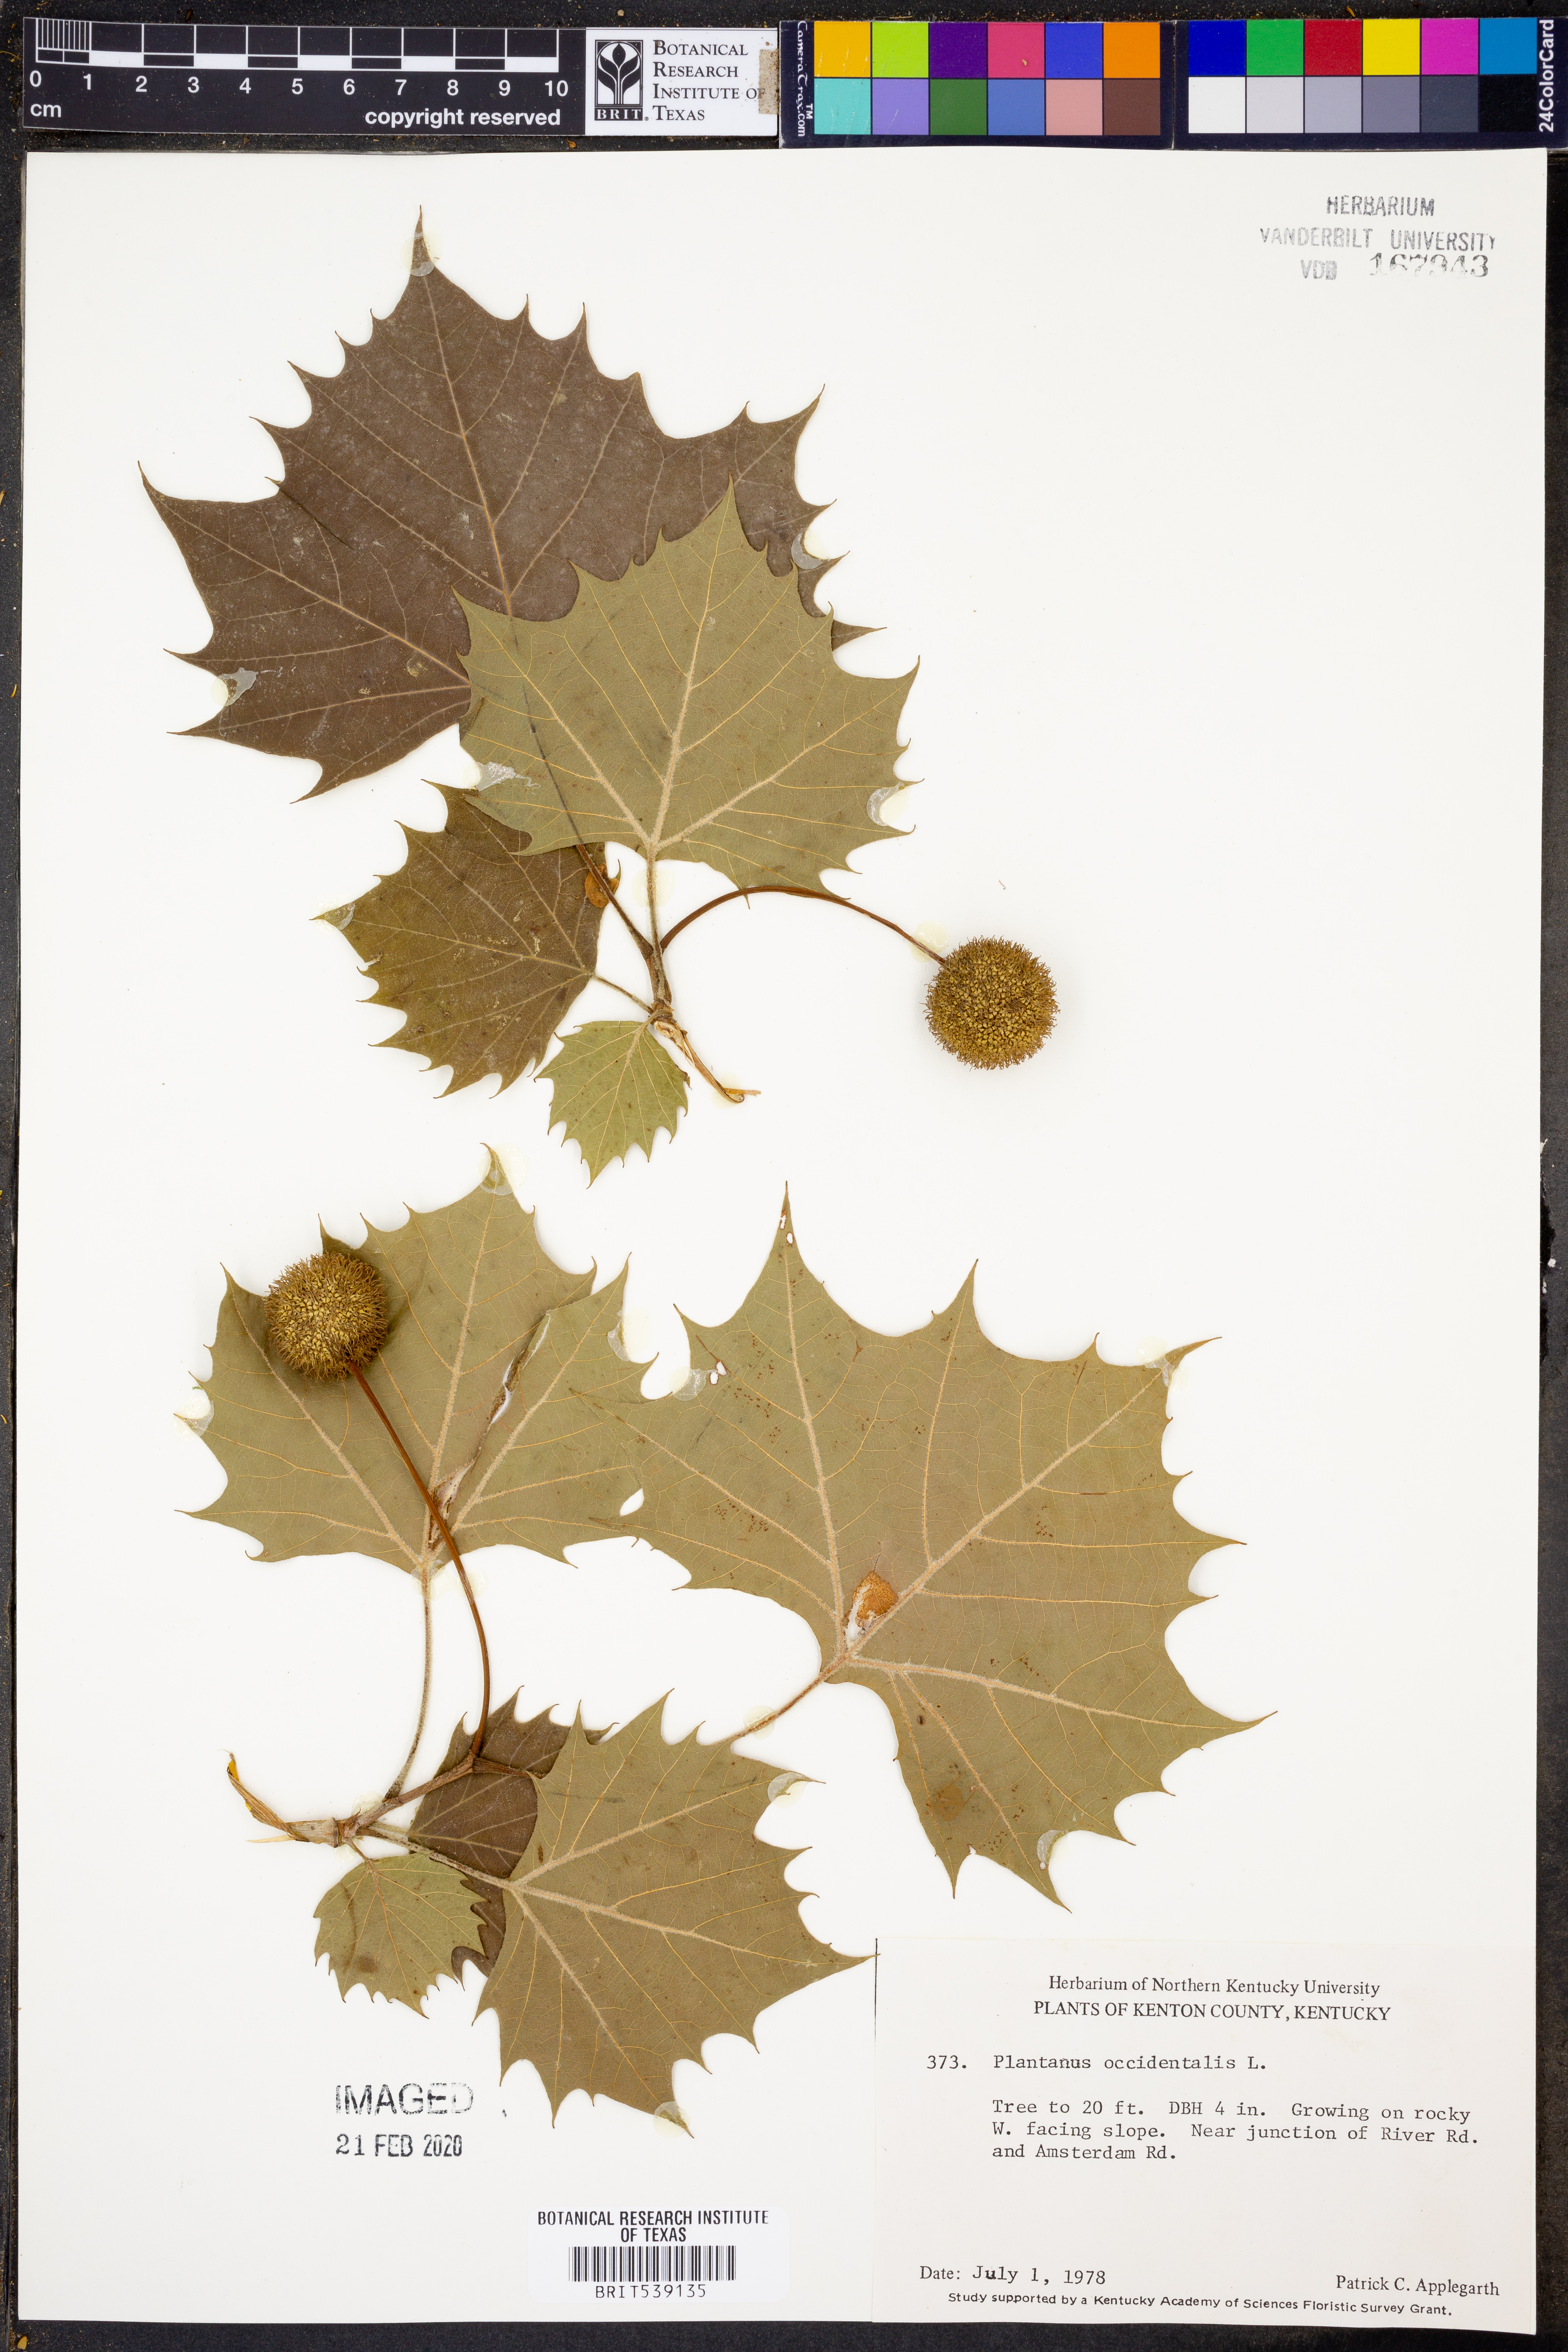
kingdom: Plantae
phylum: Tracheophyta
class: Magnoliopsida
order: Proteales
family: Platanaceae
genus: Platanus
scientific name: Platanus occidentalis
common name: American sycamore
